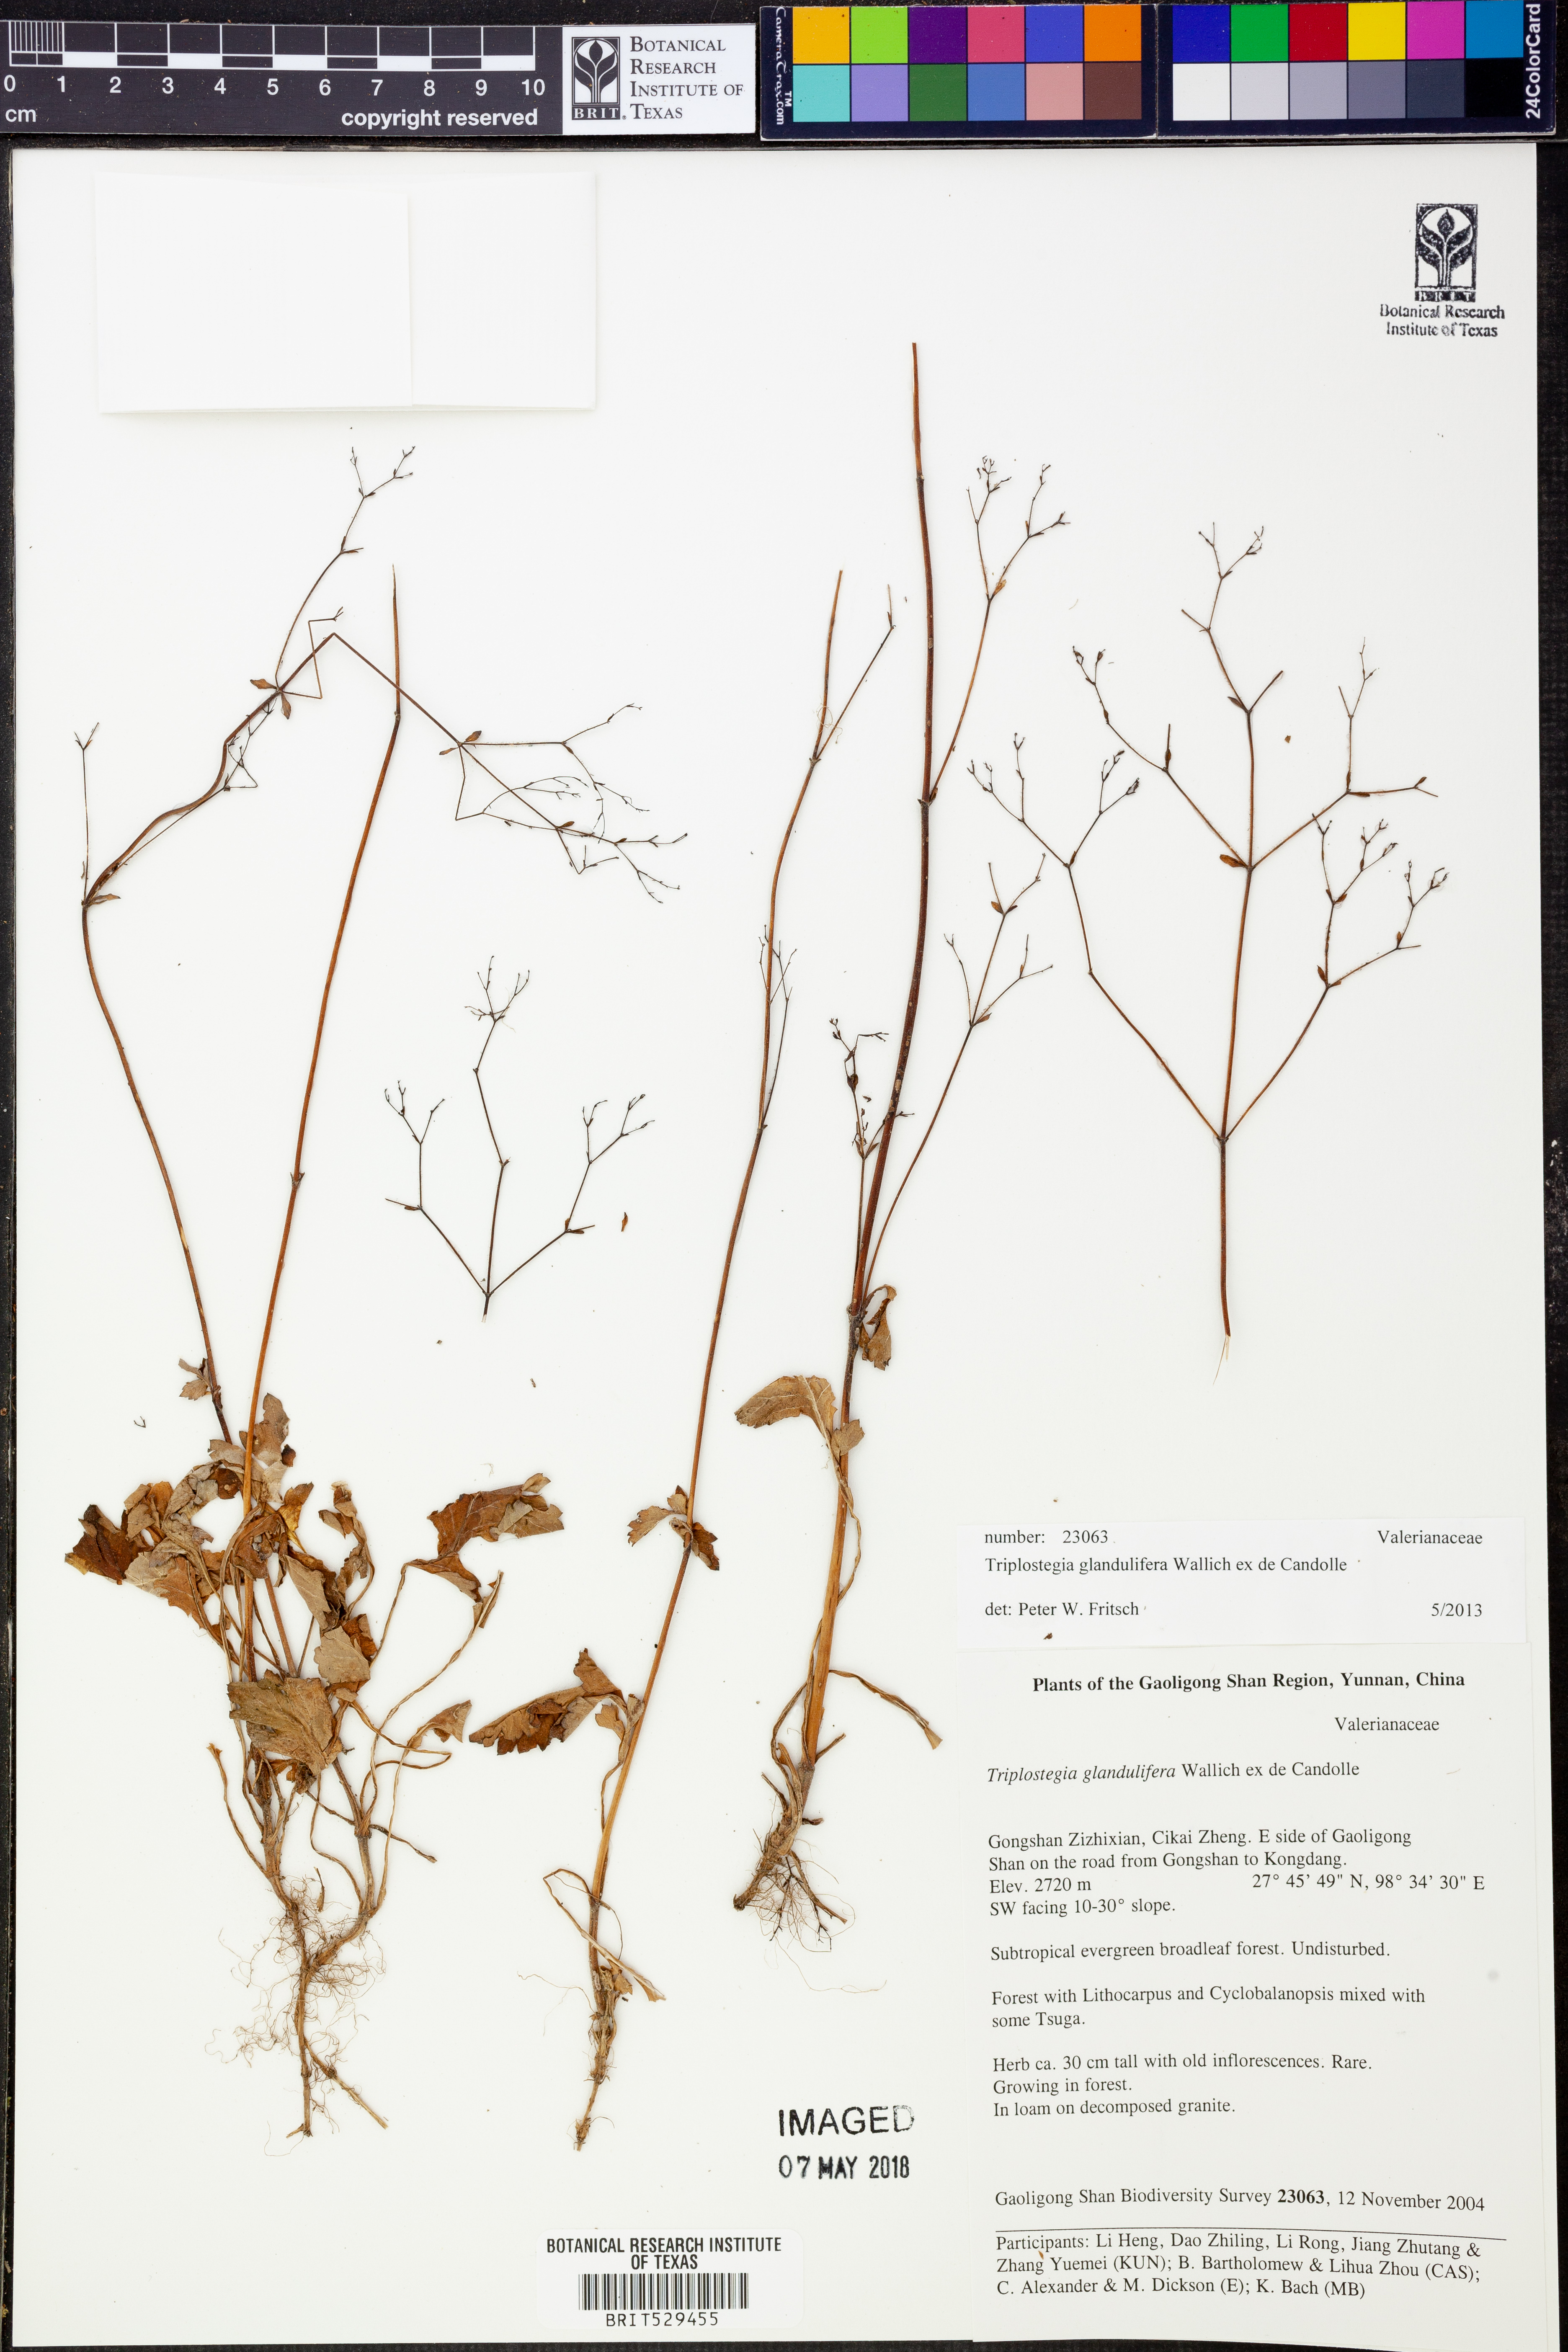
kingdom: Plantae
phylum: Tracheophyta
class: Magnoliopsida
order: Dipsacales
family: Caprifoliaceae
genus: Triplostegia
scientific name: Triplostegia glandulifera
